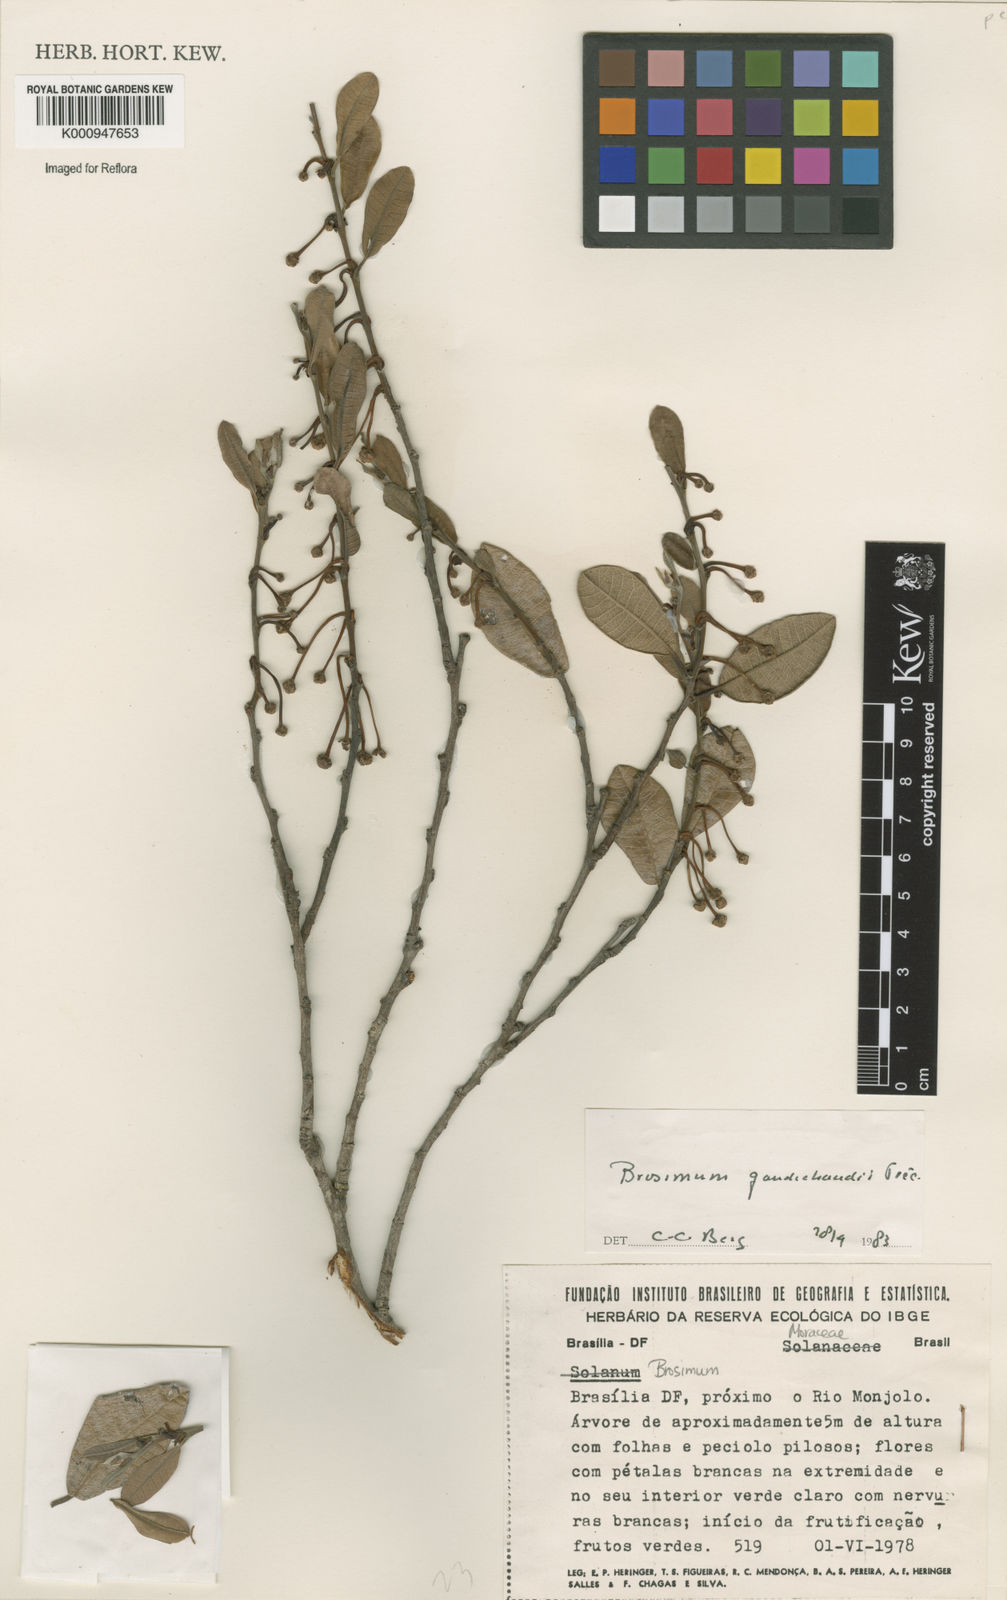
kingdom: Plantae
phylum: Tracheophyta
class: Magnoliopsida
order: Rosales
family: Moraceae
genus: Brosimum
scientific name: Brosimum
